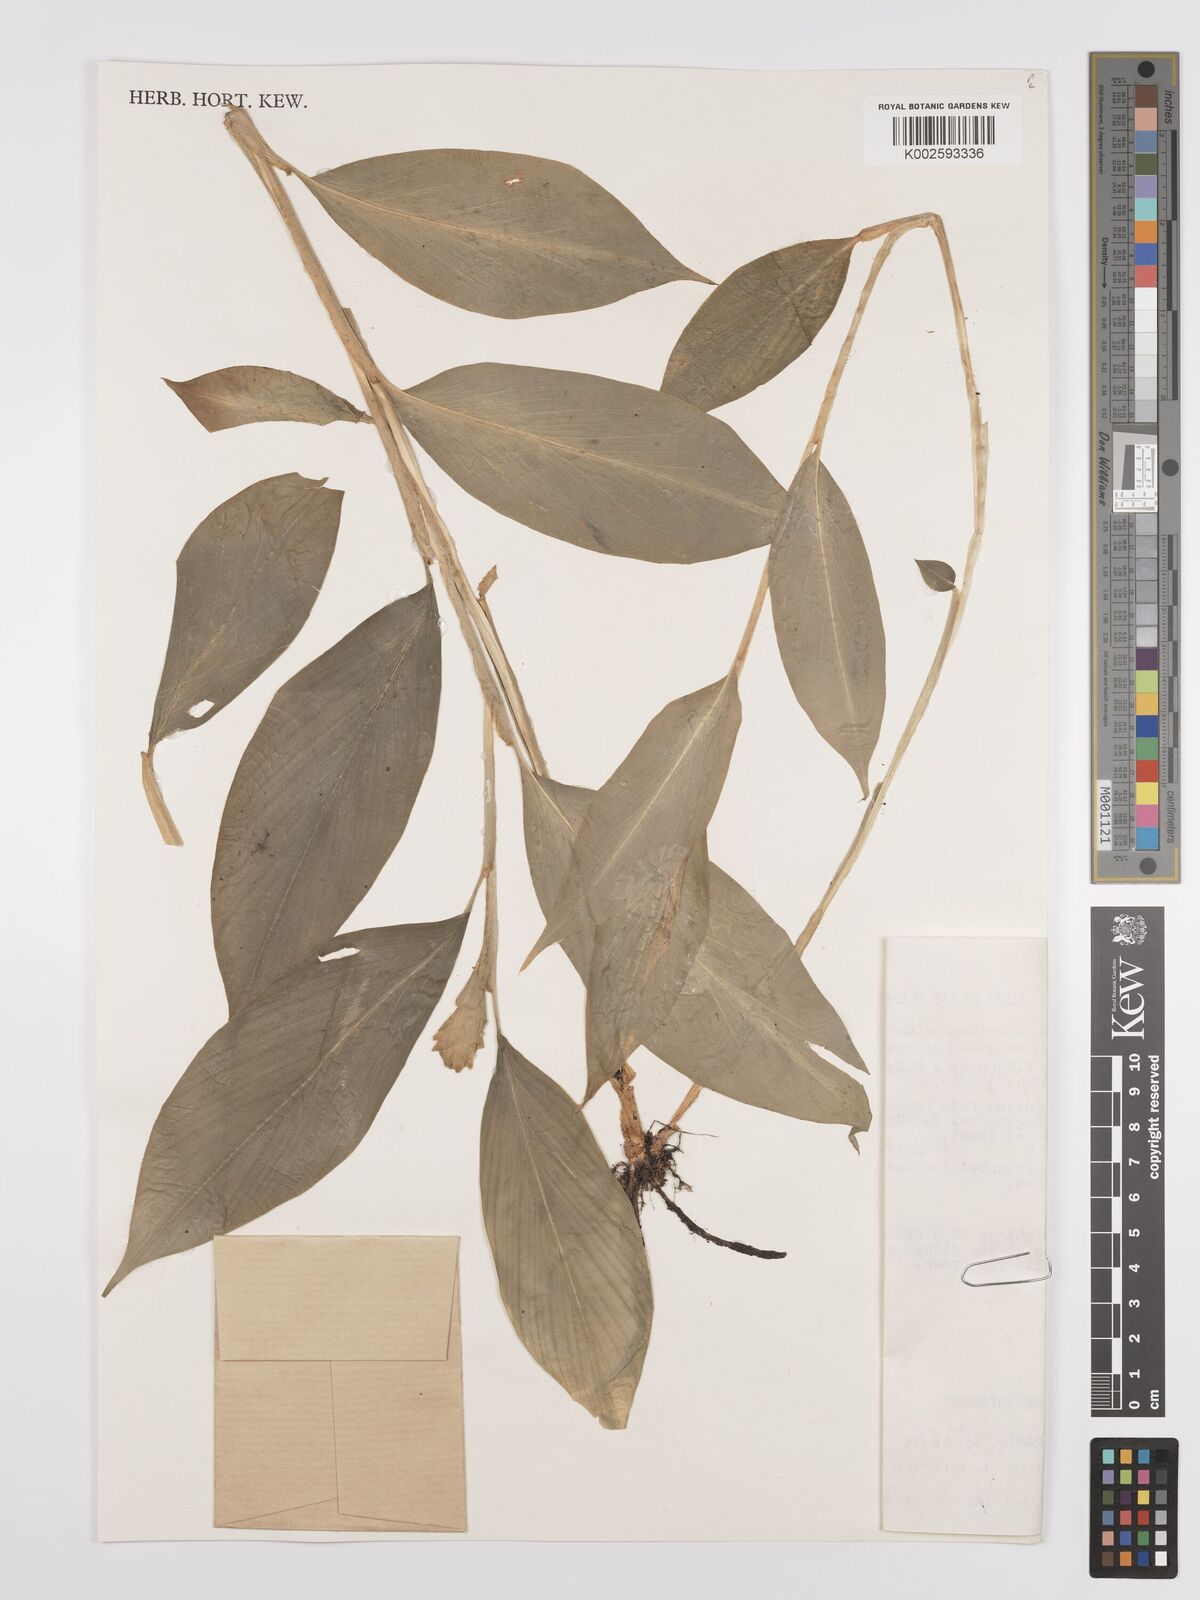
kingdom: Plantae
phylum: Tracheophyta
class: Liliopsida
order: Zingiberales
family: Zingiberaceae
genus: Globba
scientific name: Globba marantina
